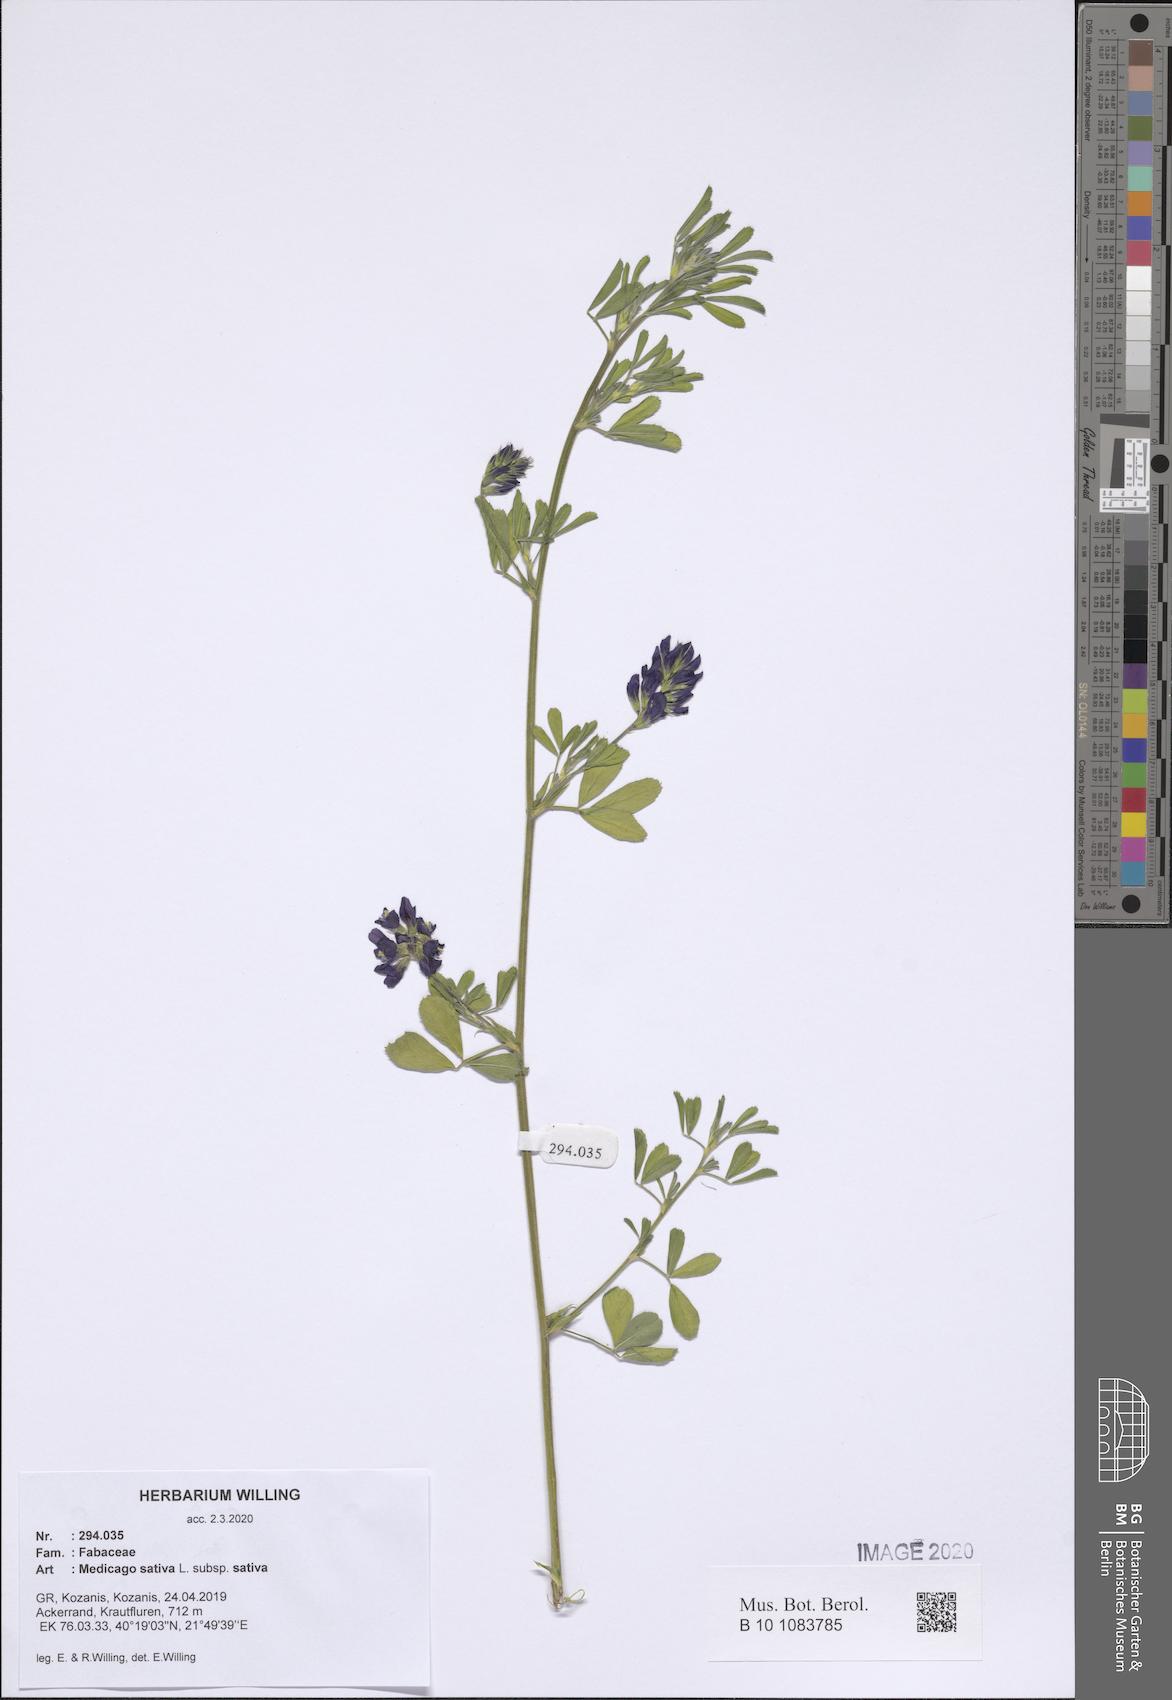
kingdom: Plantae
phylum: Tracheophyta
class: Magnoliopsida
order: Fabales
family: Fabaceae
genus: Medicago
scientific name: Medicago sativa
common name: Alfalfa
